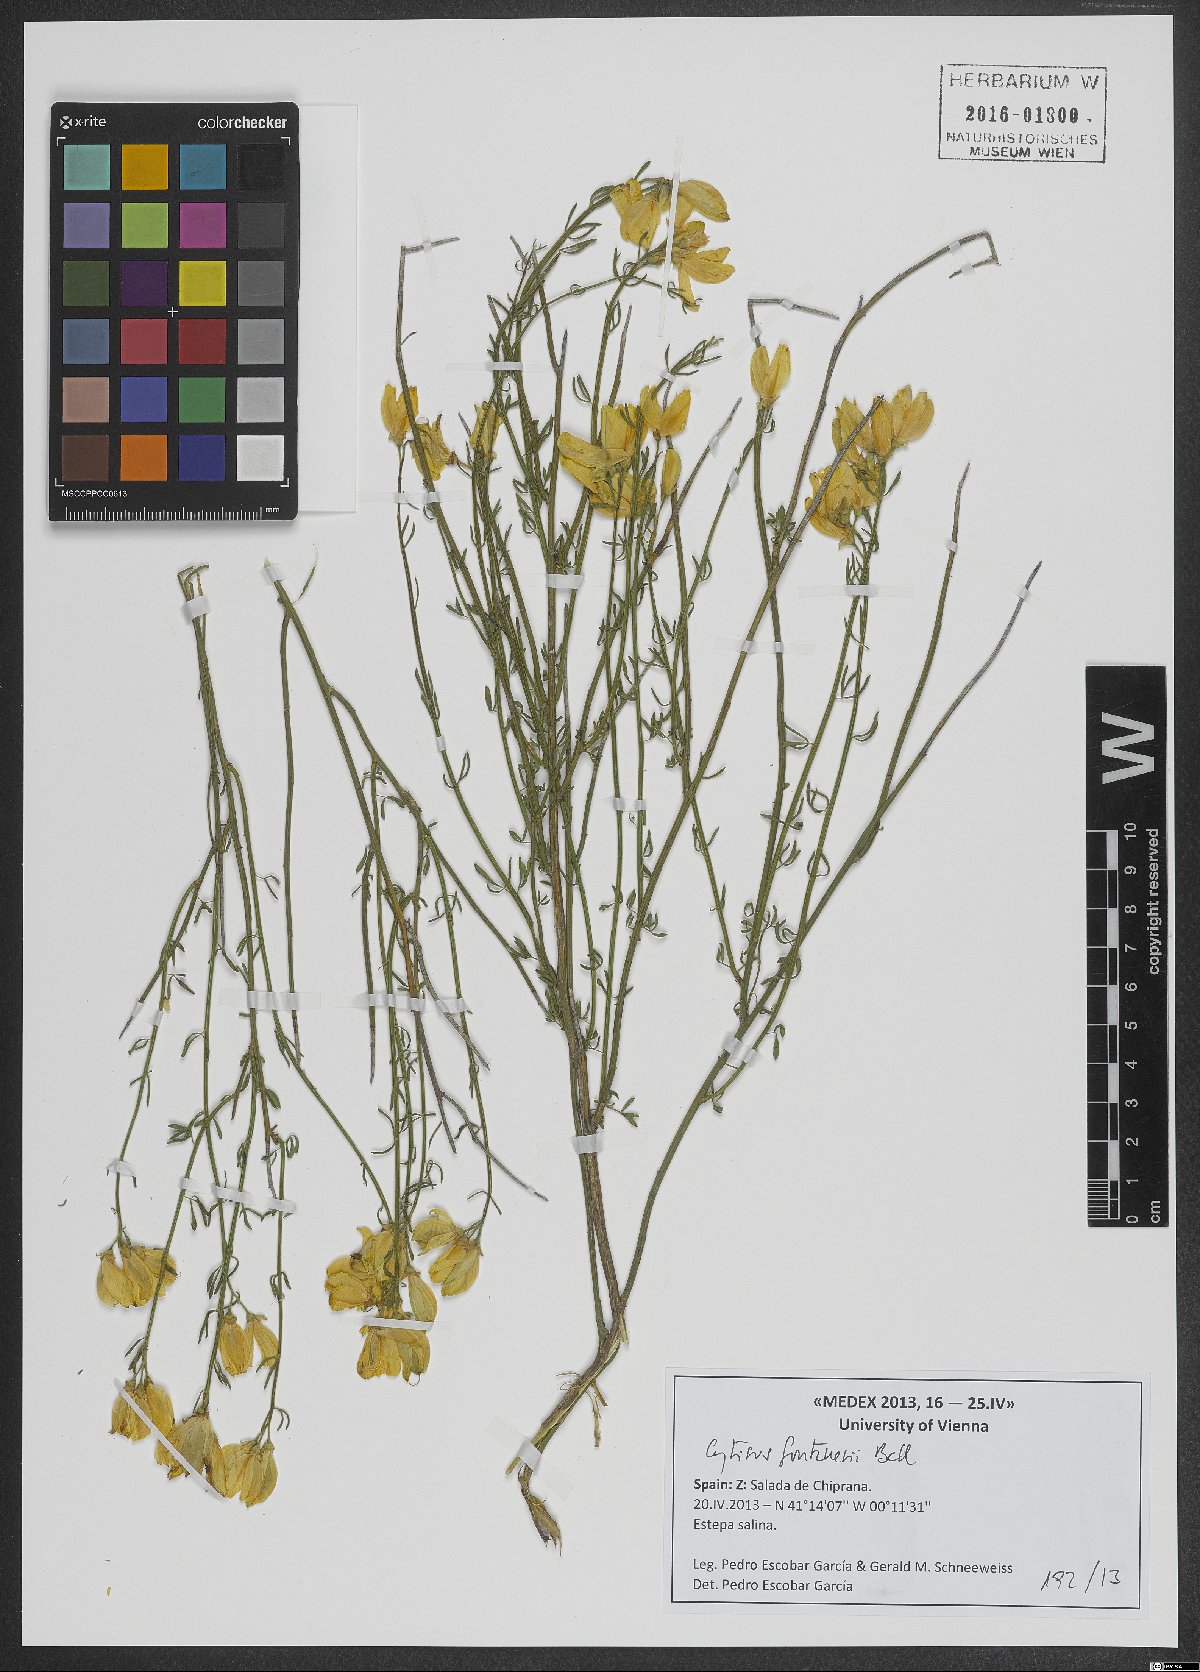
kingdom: Plantae
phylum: Tracheophyta
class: Magnoliopsida
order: Fabales
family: Fabaceae
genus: Cytisus
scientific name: Cytisus fontanesii
